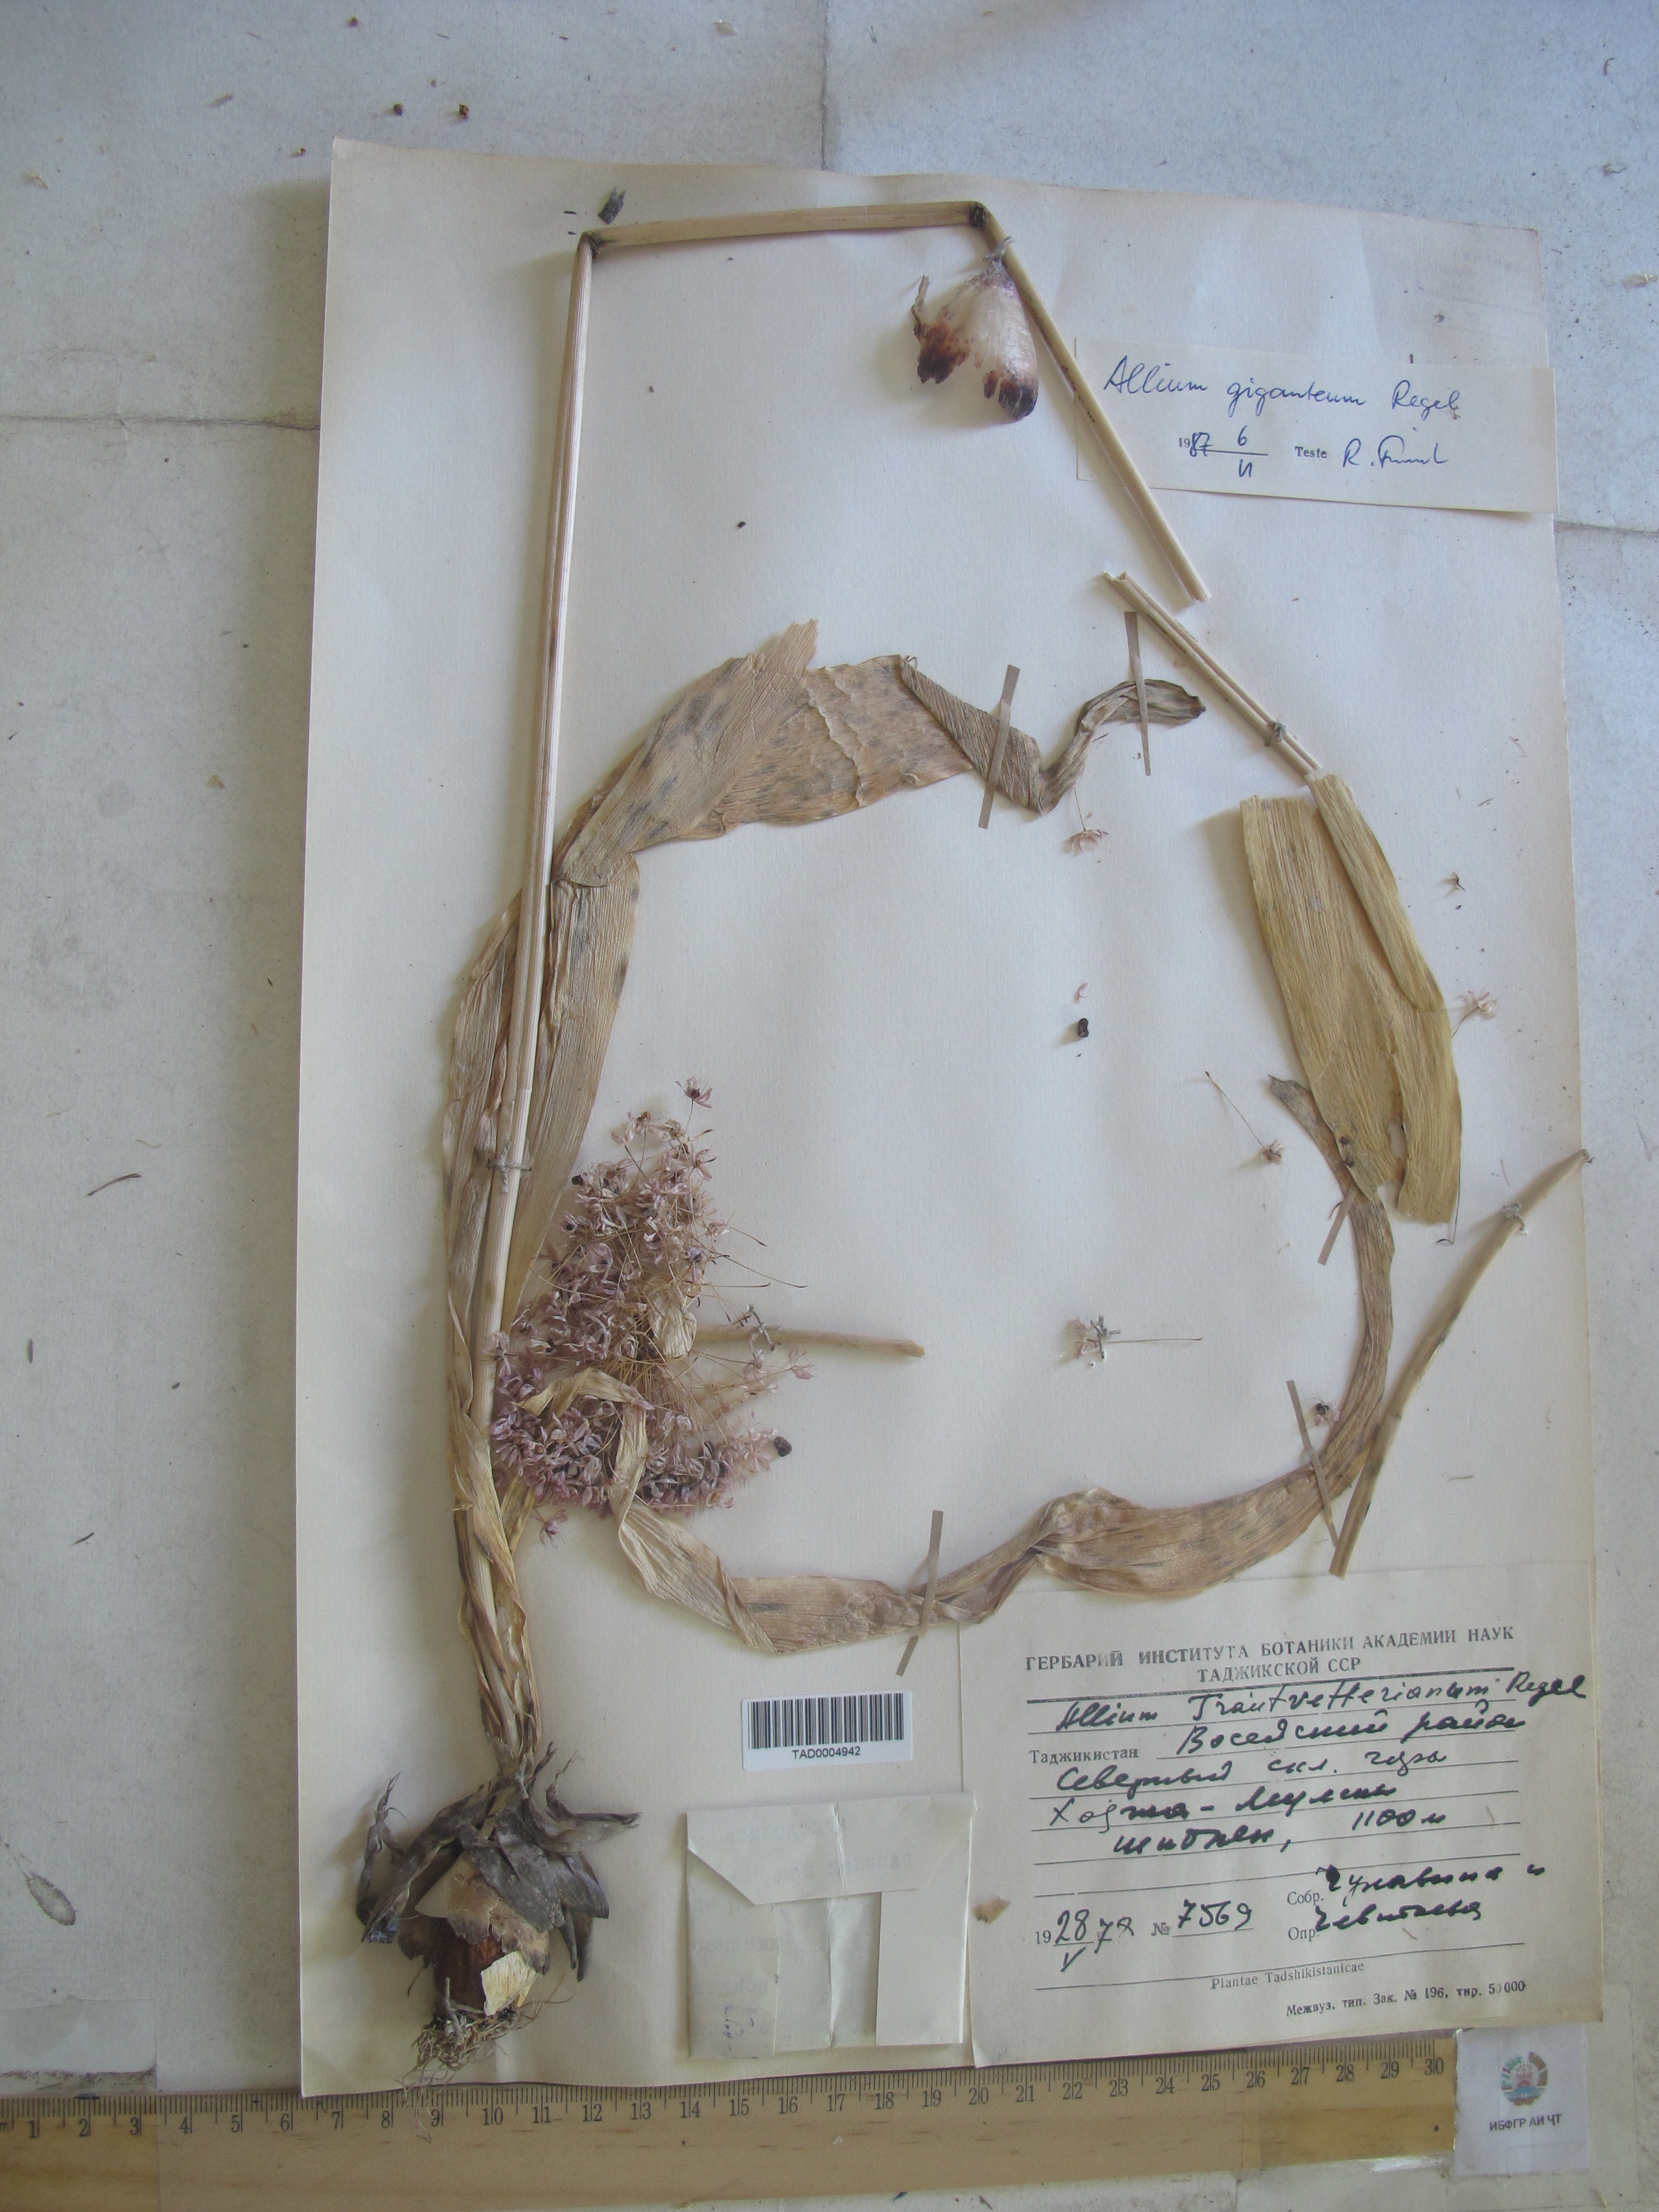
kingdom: Plantae
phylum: Tracheophyta
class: Liliopsida
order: Asparagales
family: Amaryllidaceae
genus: Allium
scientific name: Allium giganteum
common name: Giant onion
